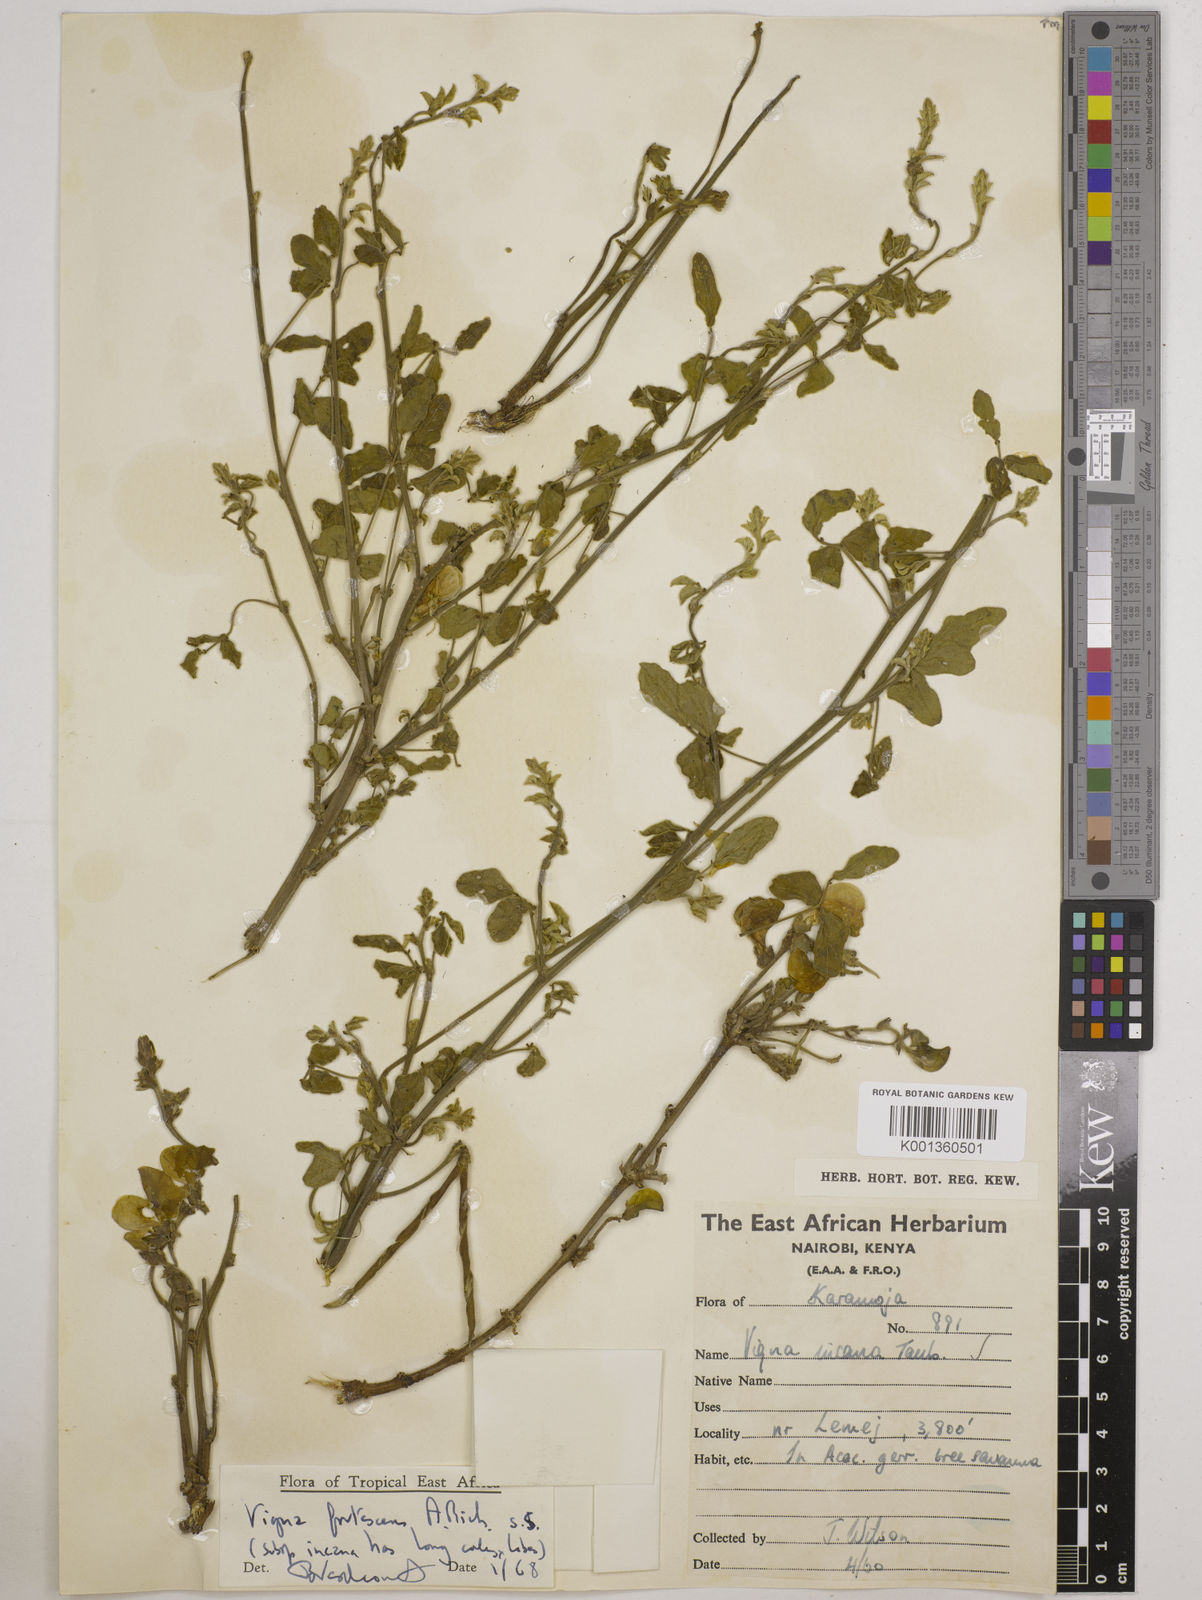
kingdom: Plantae
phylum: Tracheophyta
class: Magnoliopsida
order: Fabales
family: Fabaceae
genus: Vigna
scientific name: Vigna frutescens
